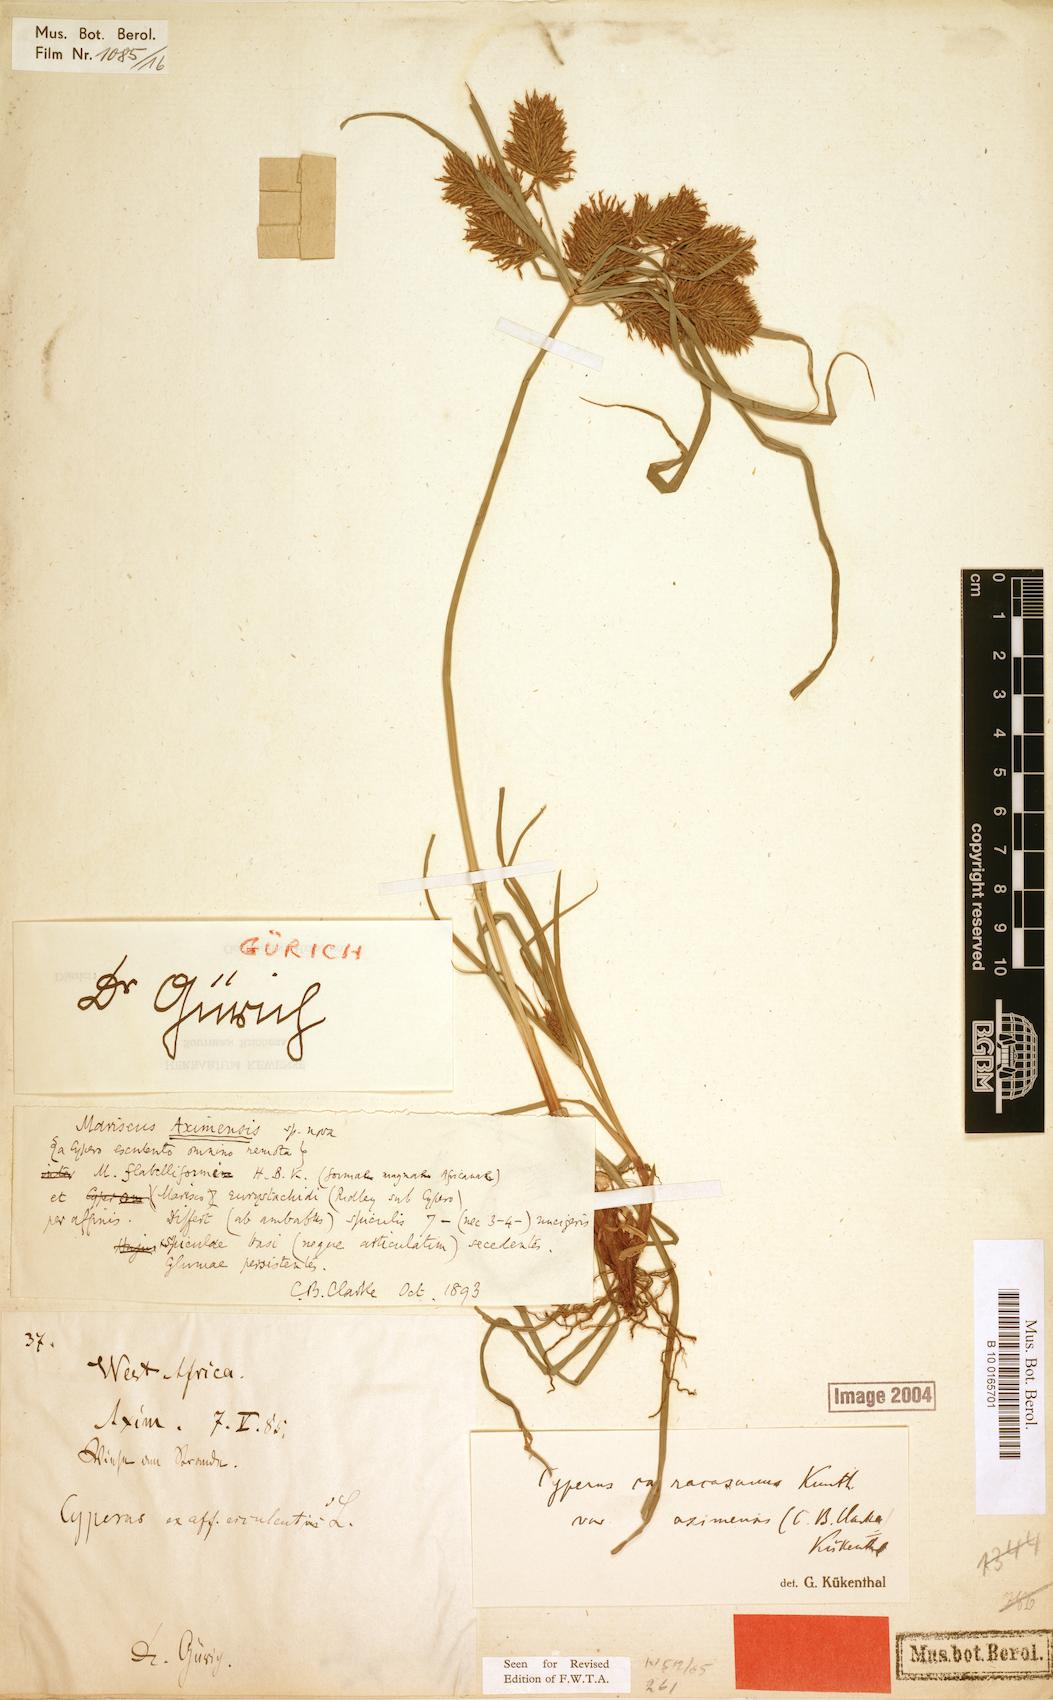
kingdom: Plantae
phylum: Tracheophyta
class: Liliopsida
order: Poales
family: Cyperaceae
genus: Cyperus
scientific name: Cyperus tenuis
